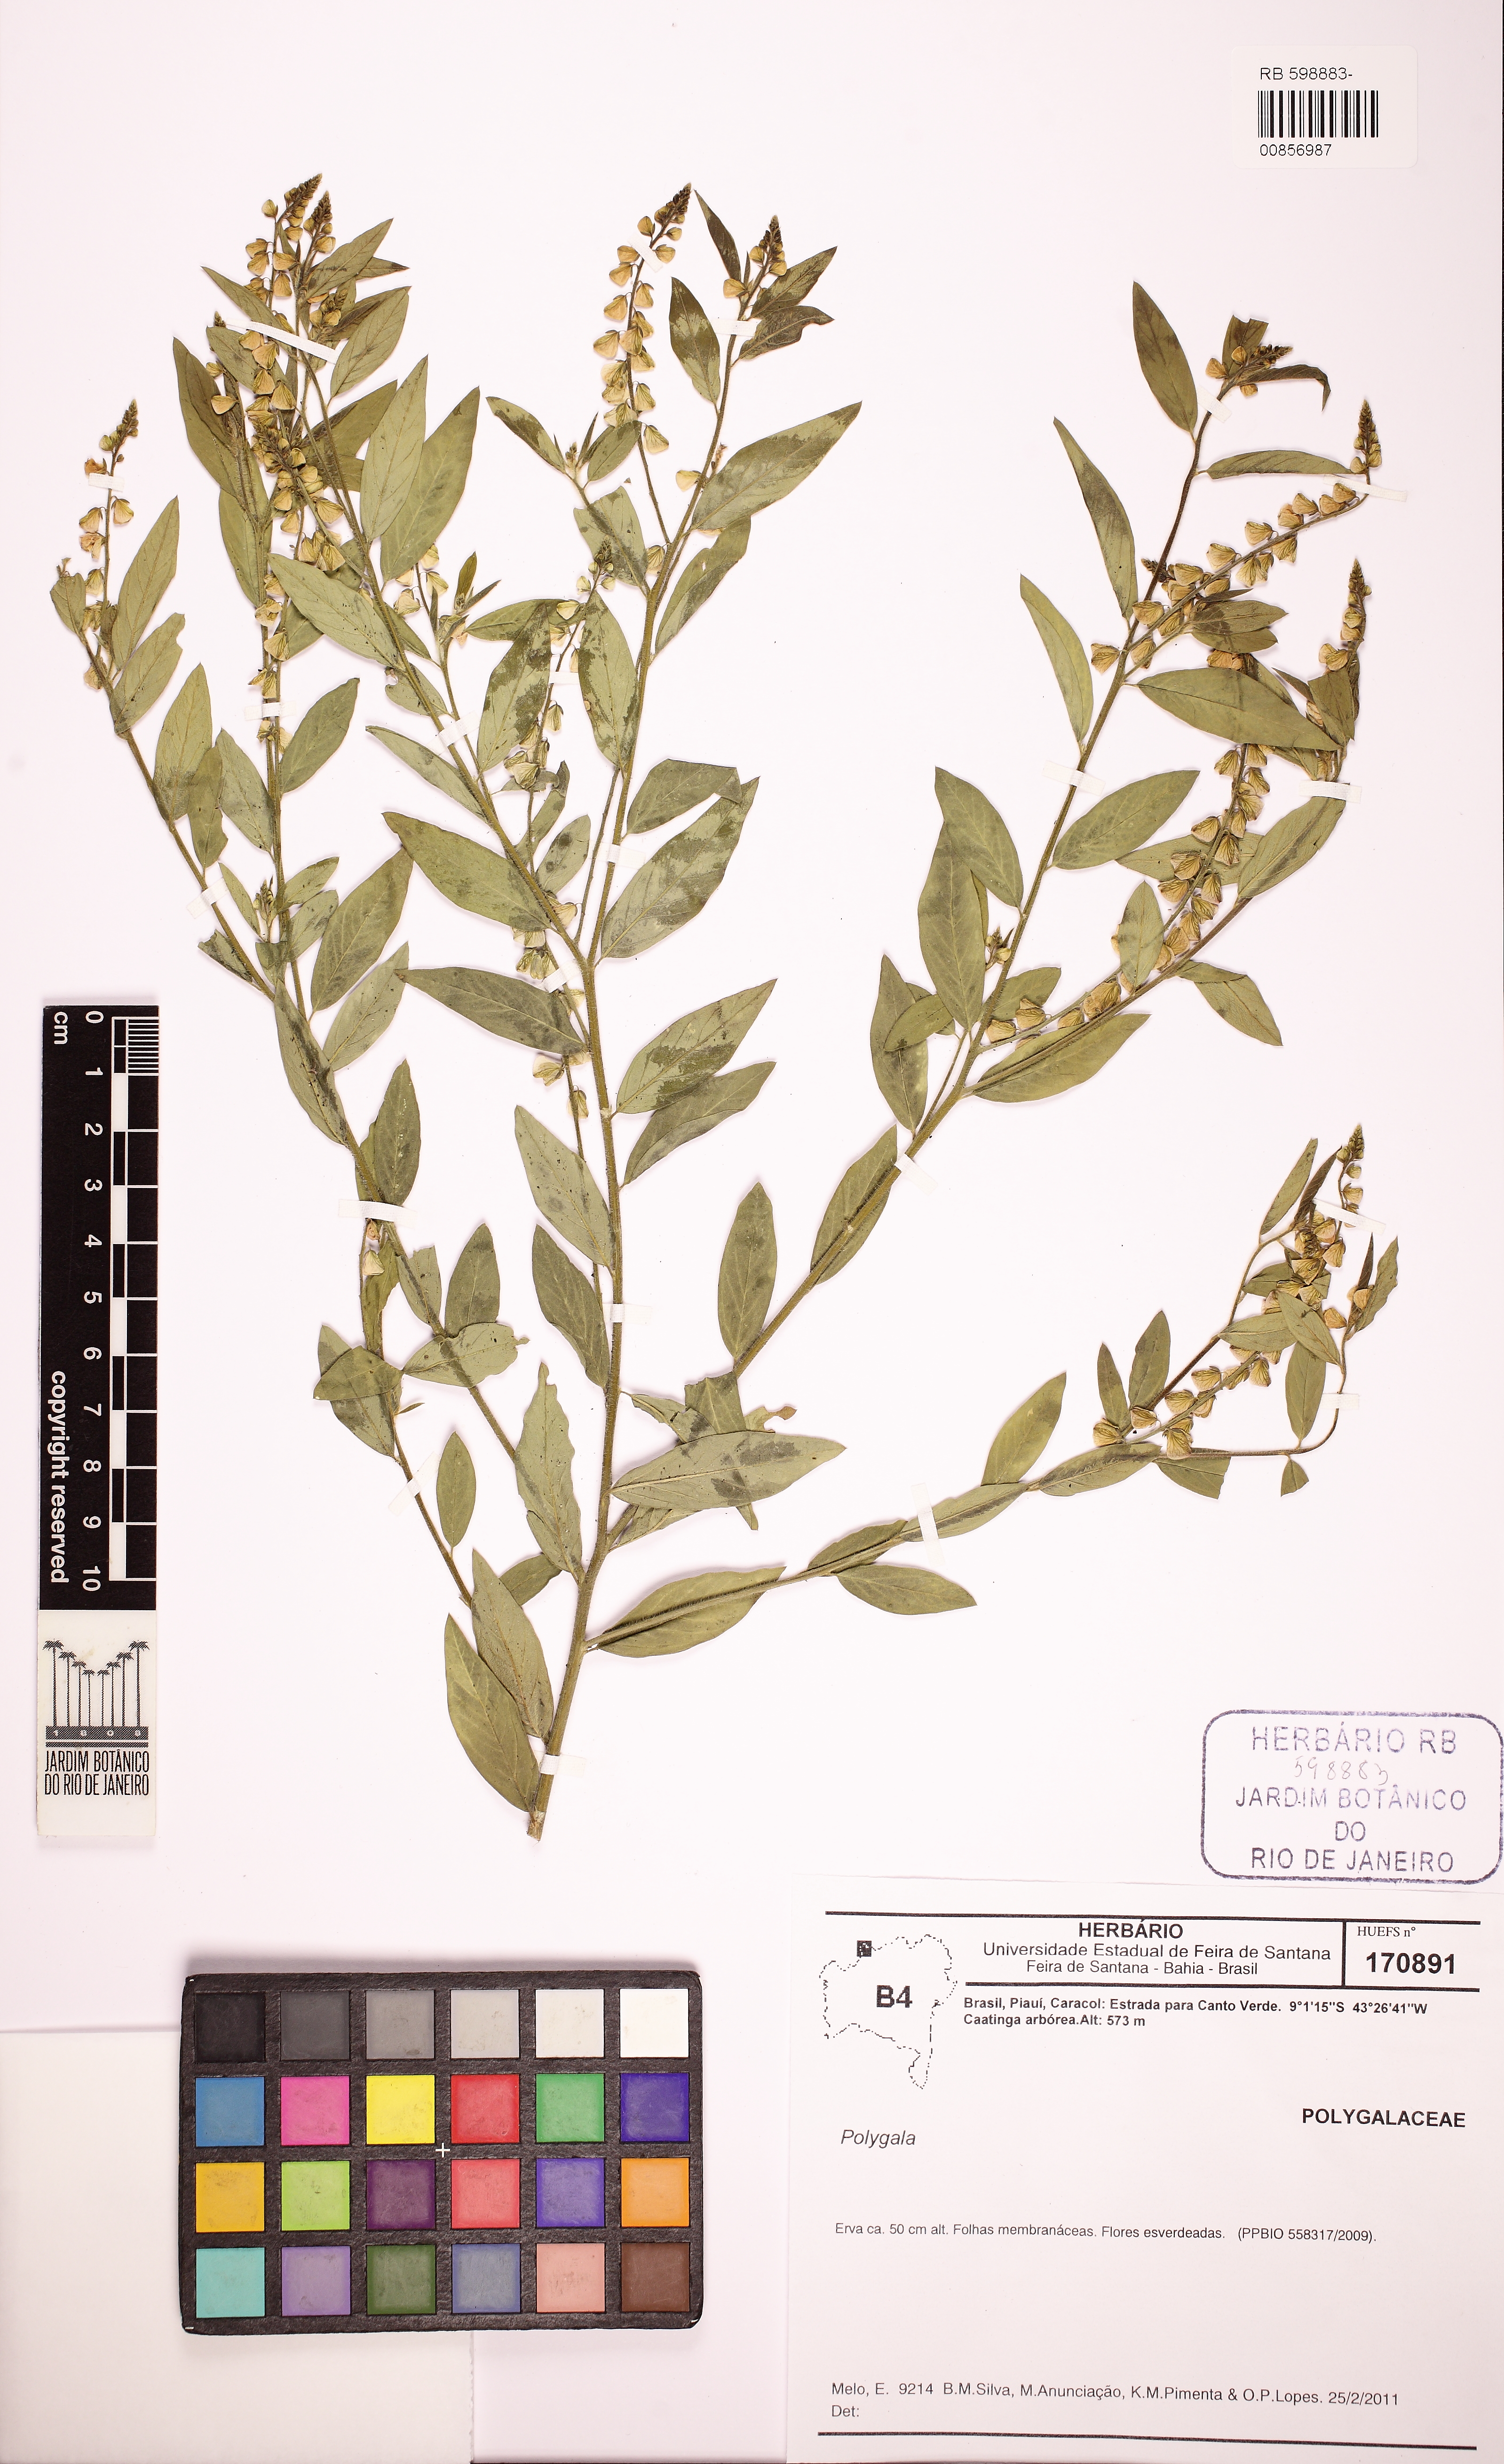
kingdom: Plantae
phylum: Tracheophyta
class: Magnoliopsida
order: Fabales
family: Polygalaceae
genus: Asemeia
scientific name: Asemeia
